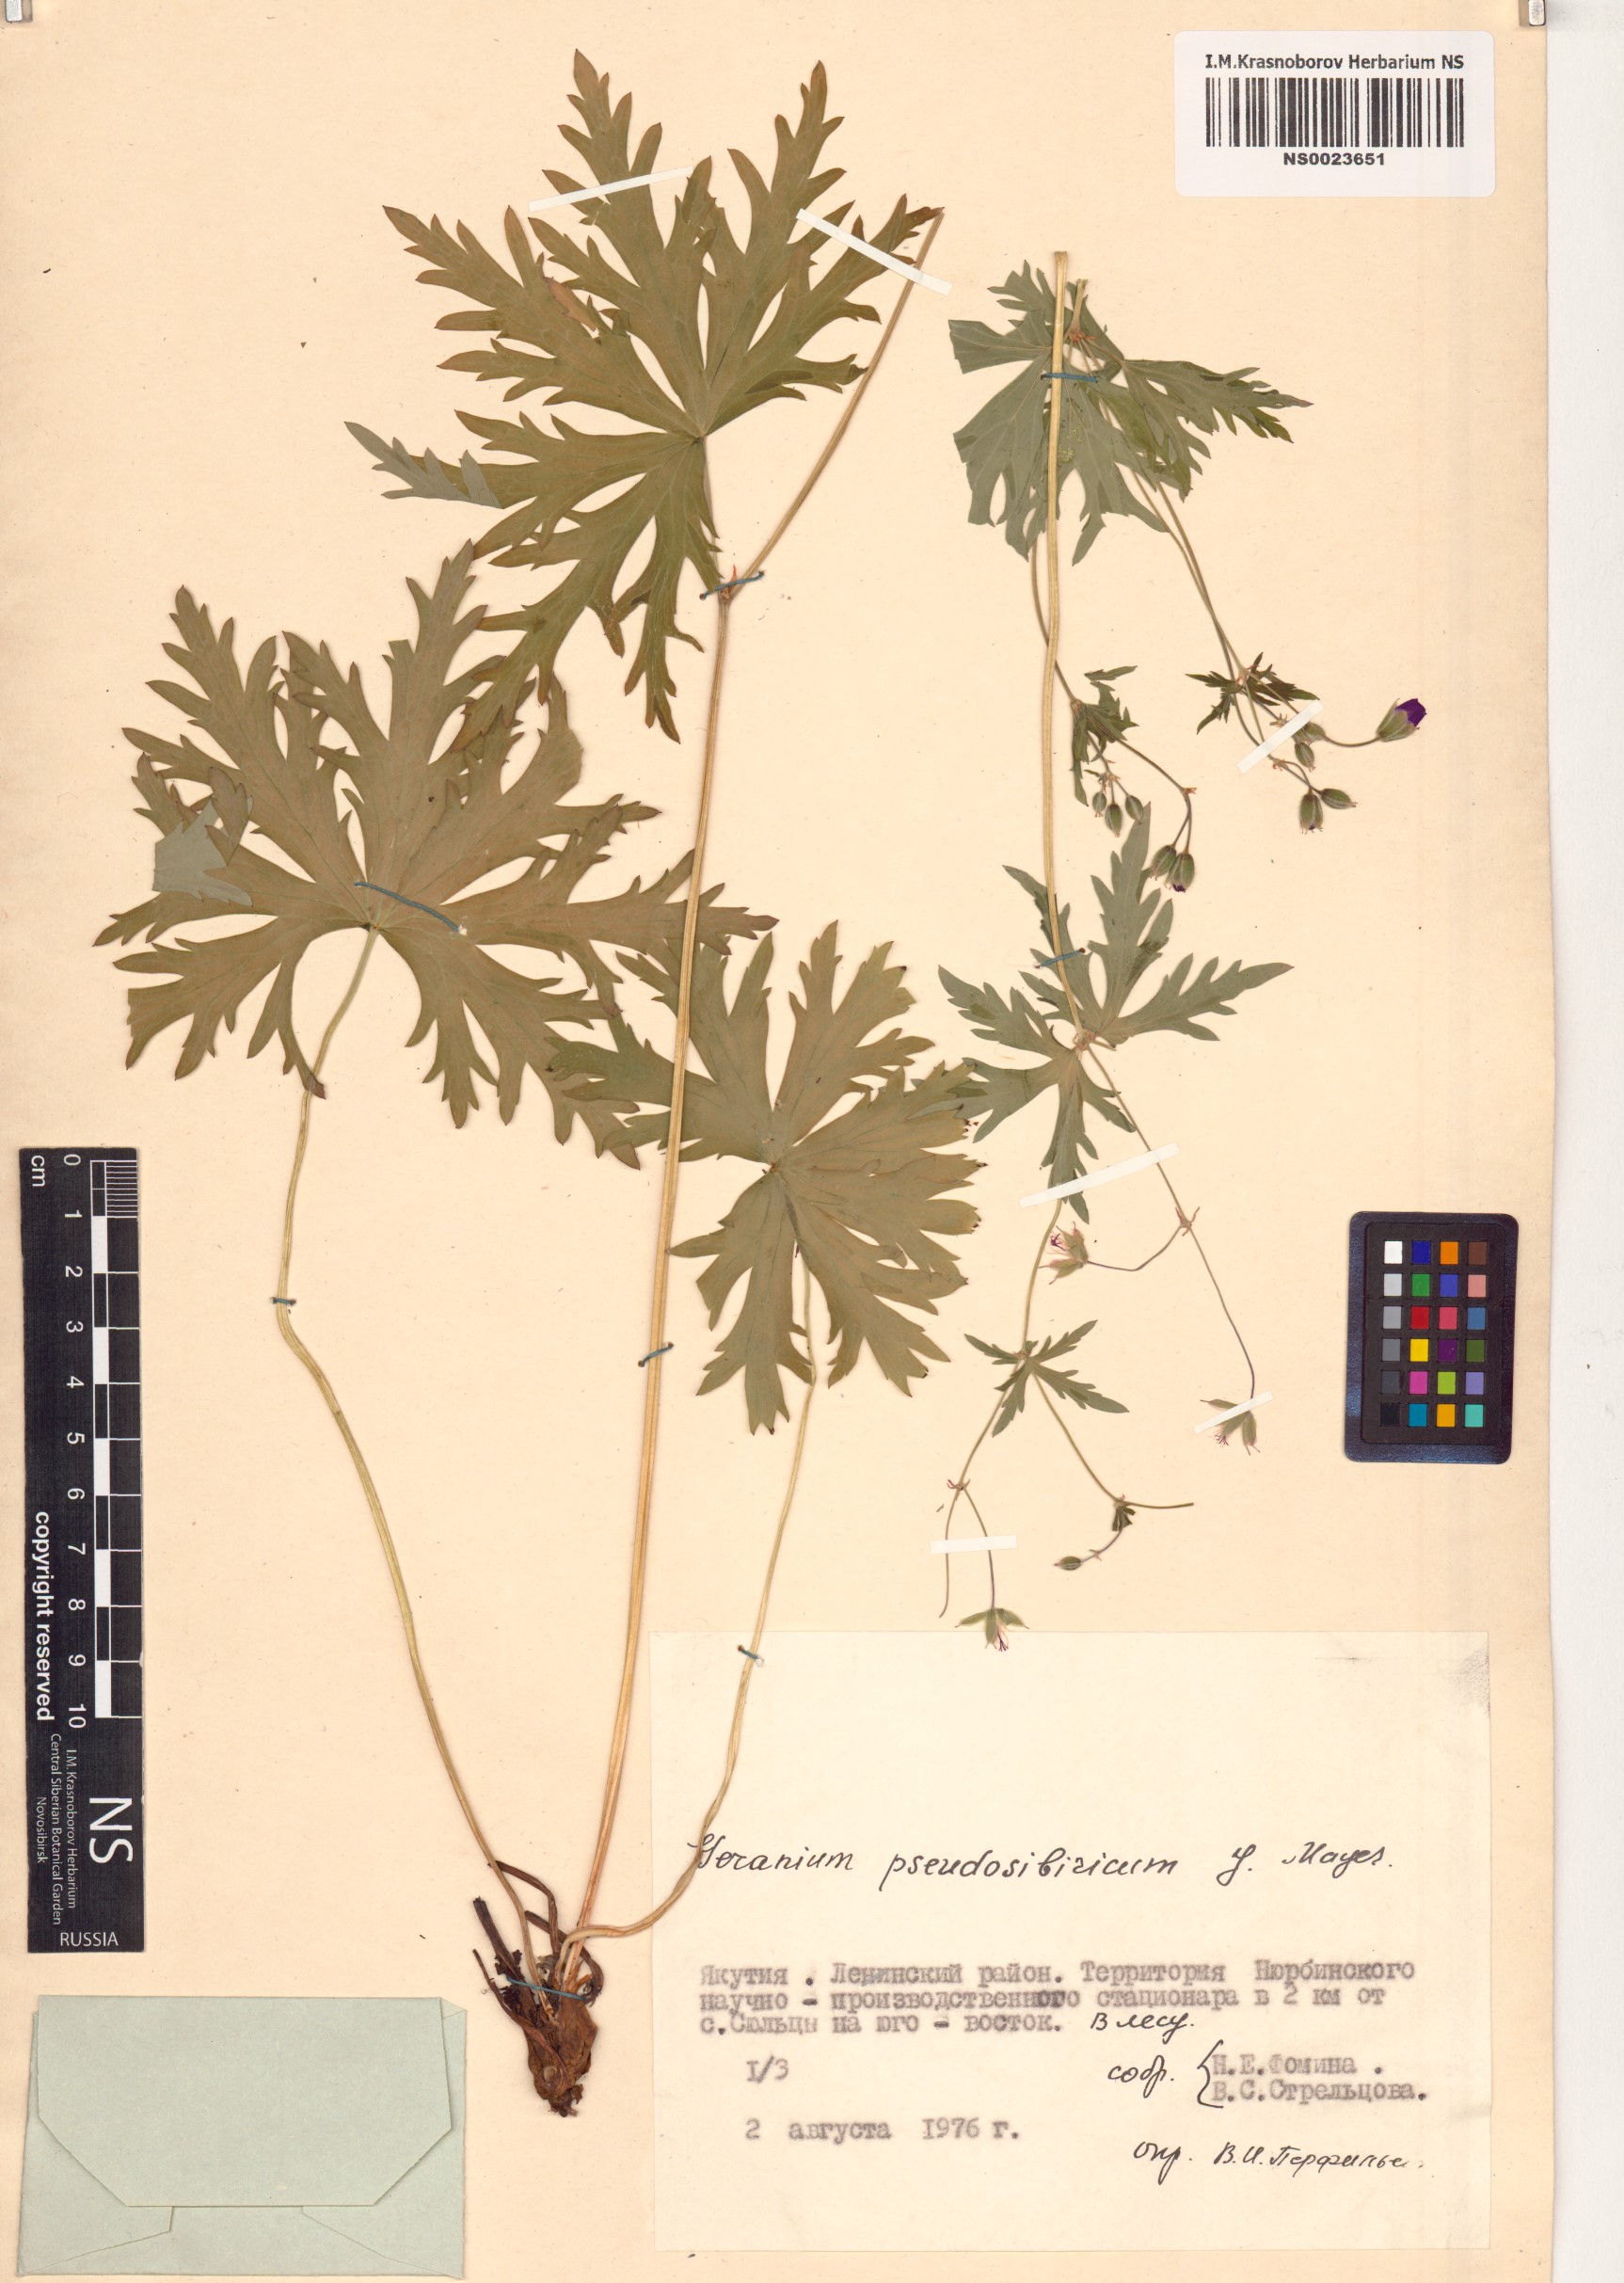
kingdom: Plantae
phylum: Tracheophyta
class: Magnoliopsida
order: Geraniales
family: Geraniaceae
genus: Geranium
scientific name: Geranium pseudosibiricum
